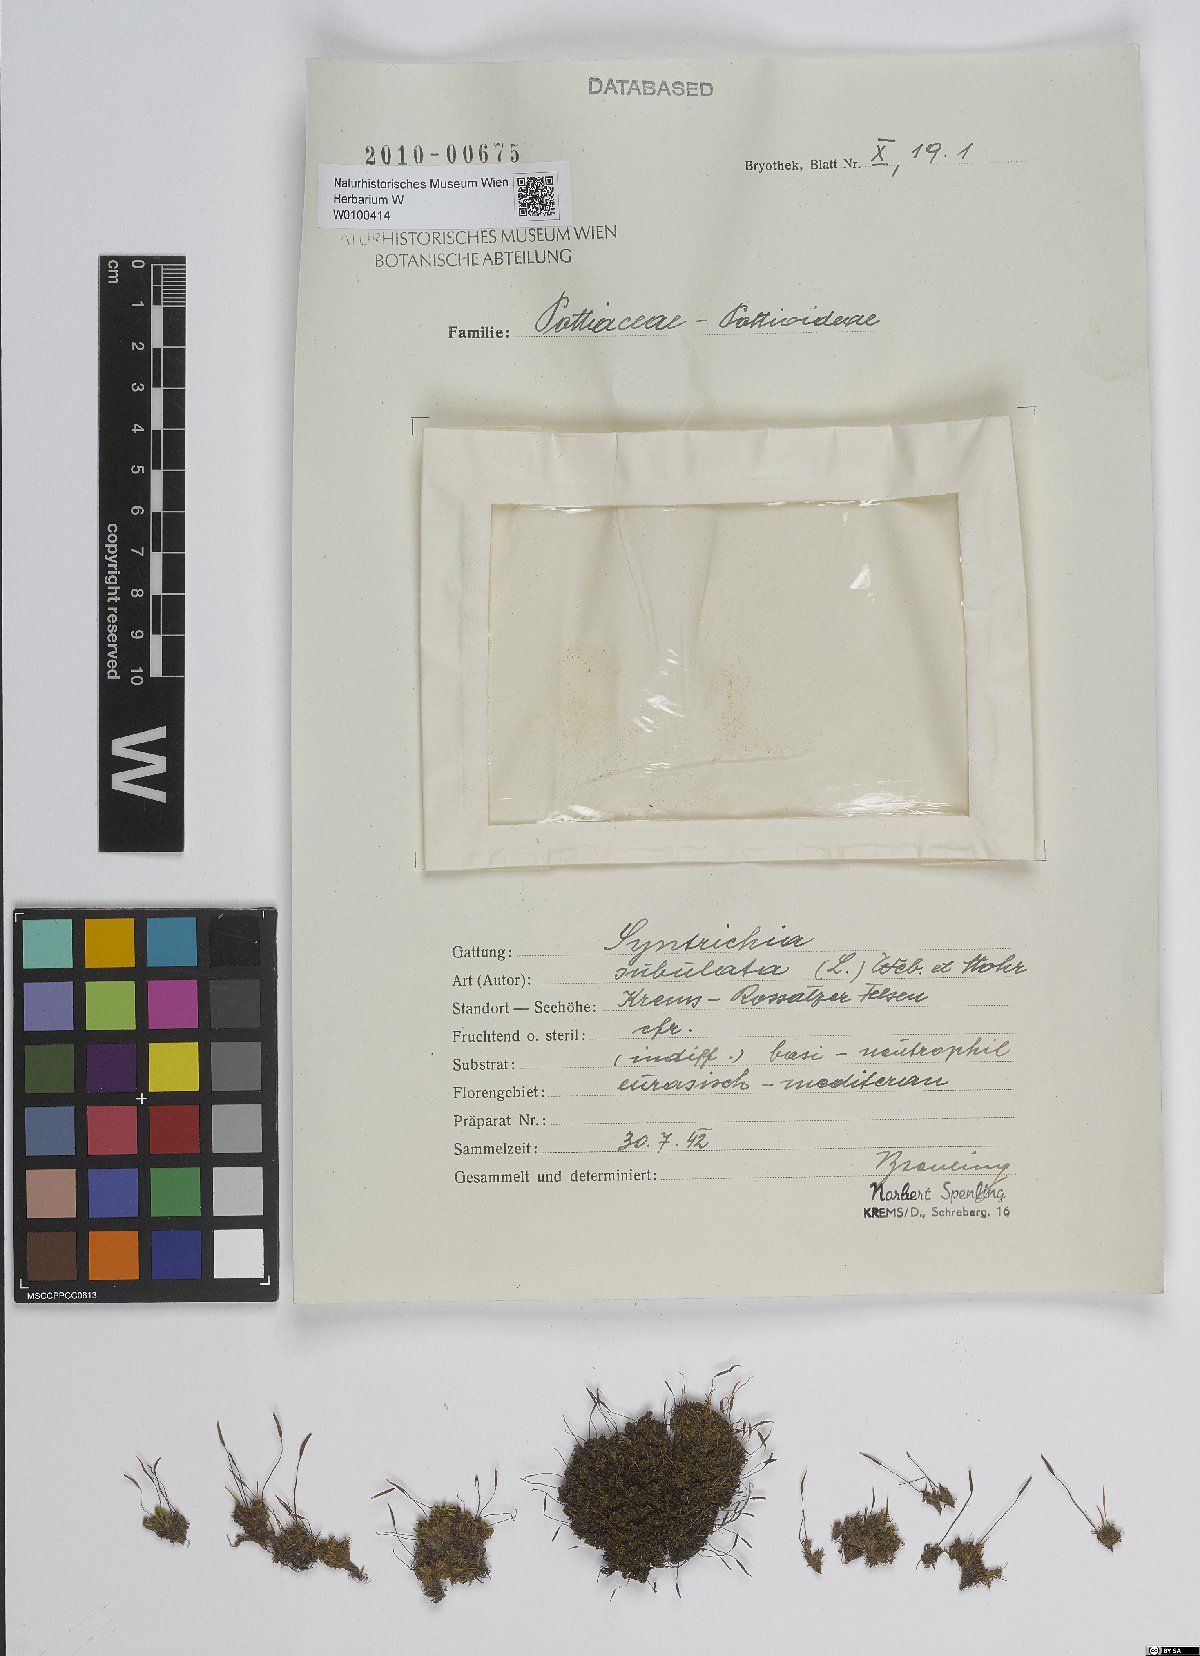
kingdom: Plantae
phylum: Bryophyta
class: Bryopsida
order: Pottiales
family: Pottiaceae
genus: Tortula
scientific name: Tortula subulata
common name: Upright screw-moss
